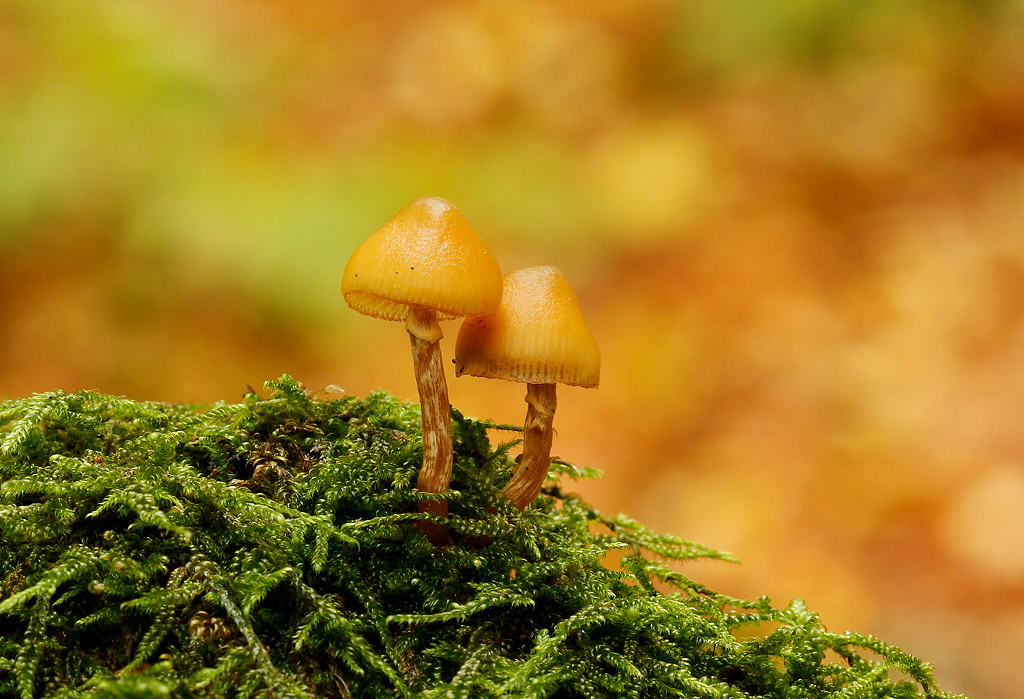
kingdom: Fungi
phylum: Basidiomycota
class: Agaricomycetes
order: Agaricales
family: Hymenogastraceae
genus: Galerina
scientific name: Galerina marginata
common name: randbæltet hjelmhat
